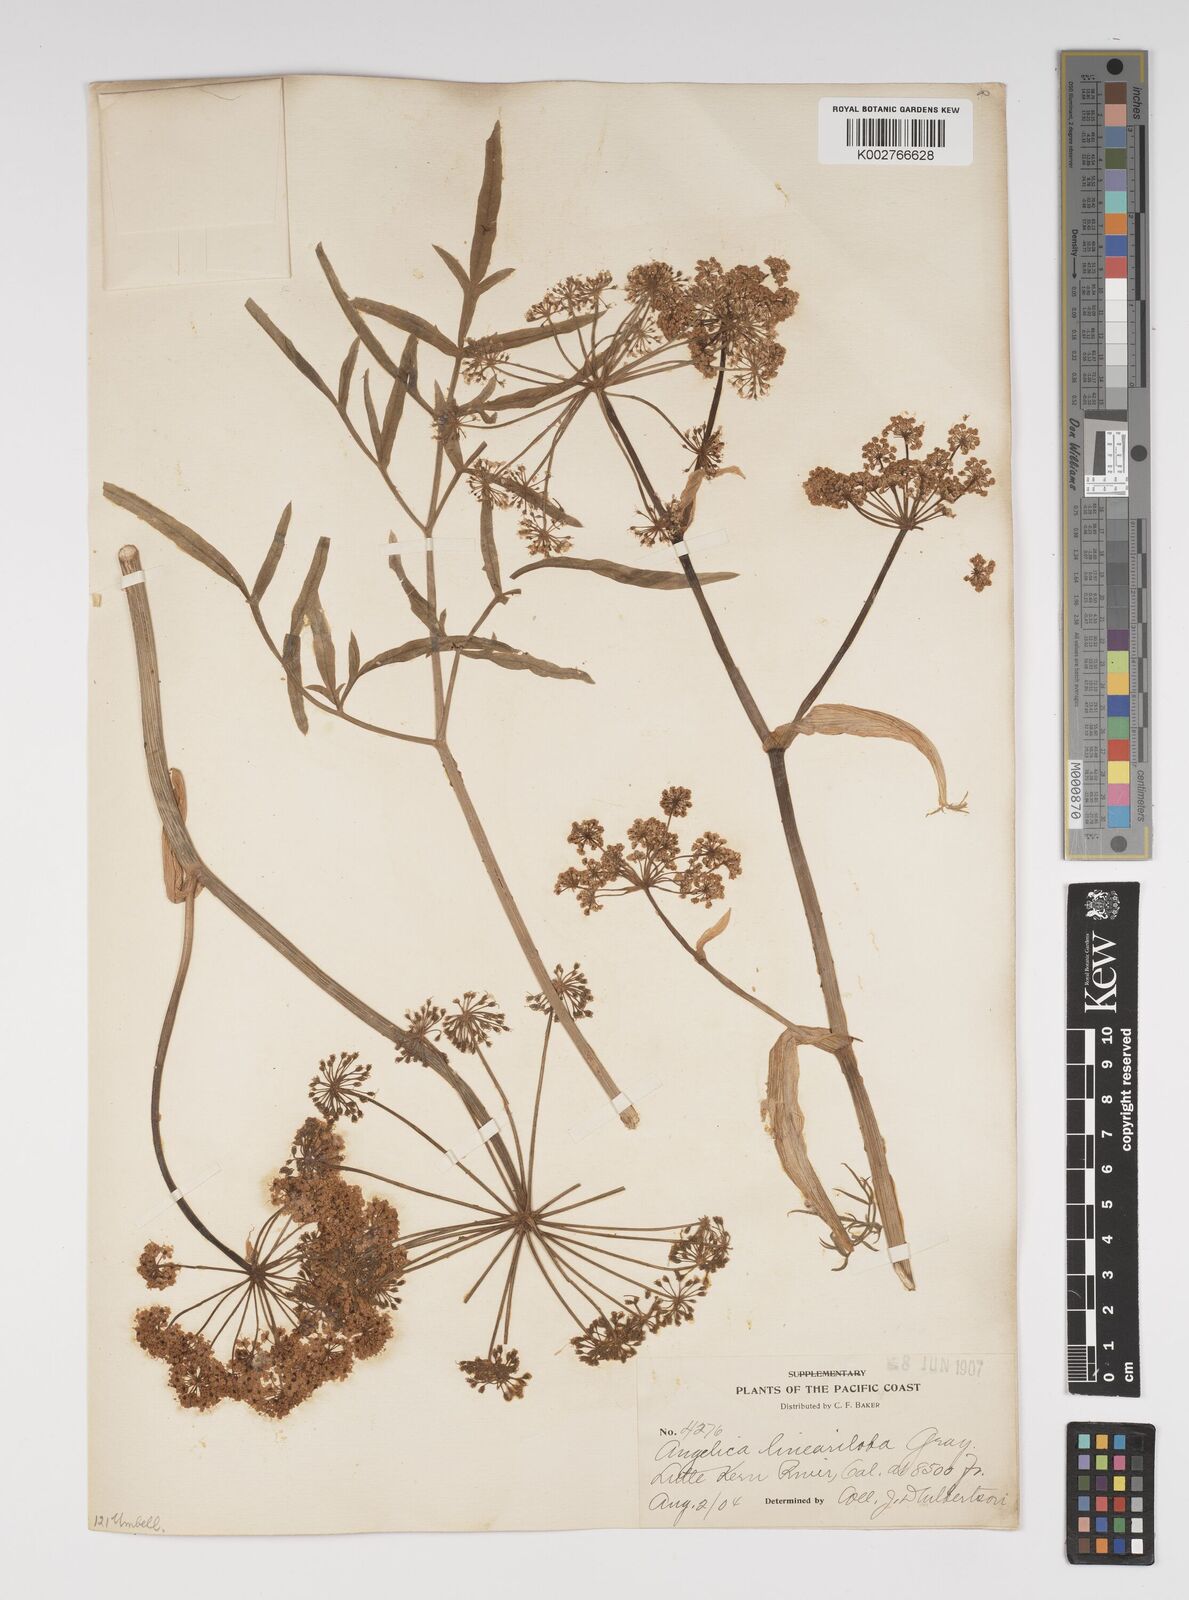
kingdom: Plantae
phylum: Tracheophyta
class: Magnoliopsida
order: Apiales
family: Apiaceae
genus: Angelica
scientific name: Angelica lineariloba
